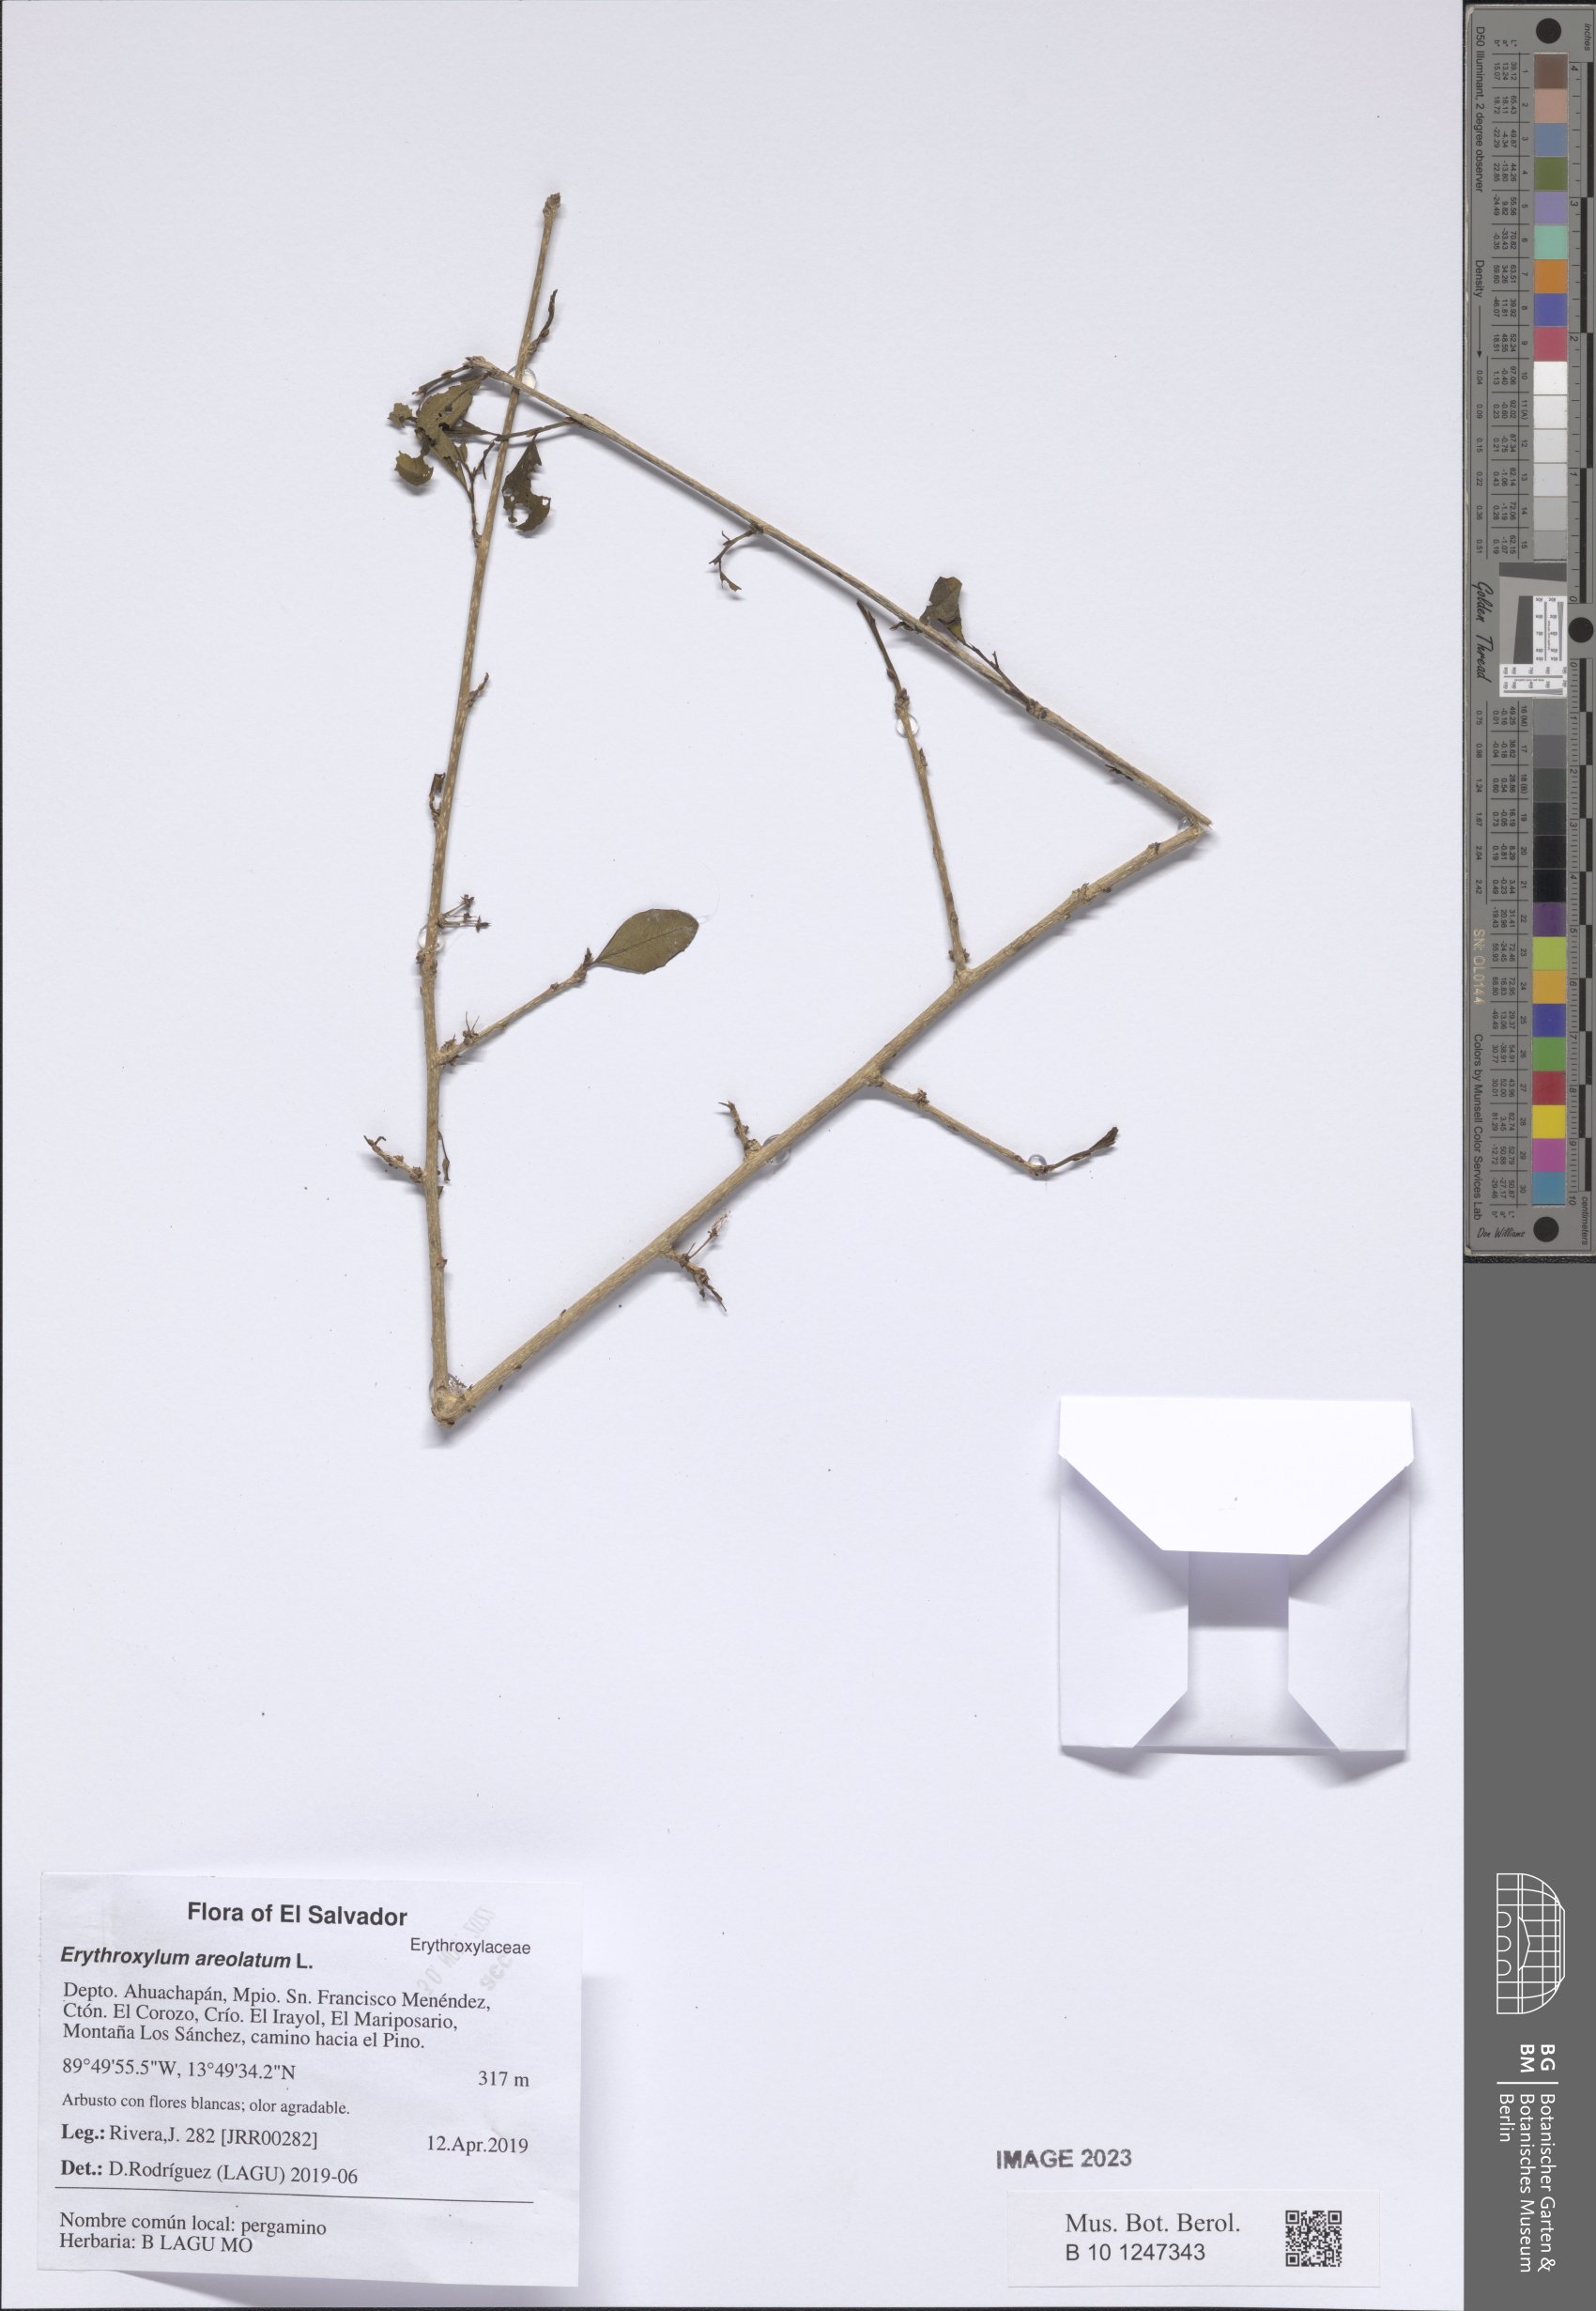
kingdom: Plantae
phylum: Tracheophyta
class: Magnoliopsida
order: Malpighiales
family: Erythroxylaceae
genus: Erythroxylum
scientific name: Erythroxylum areolatum
